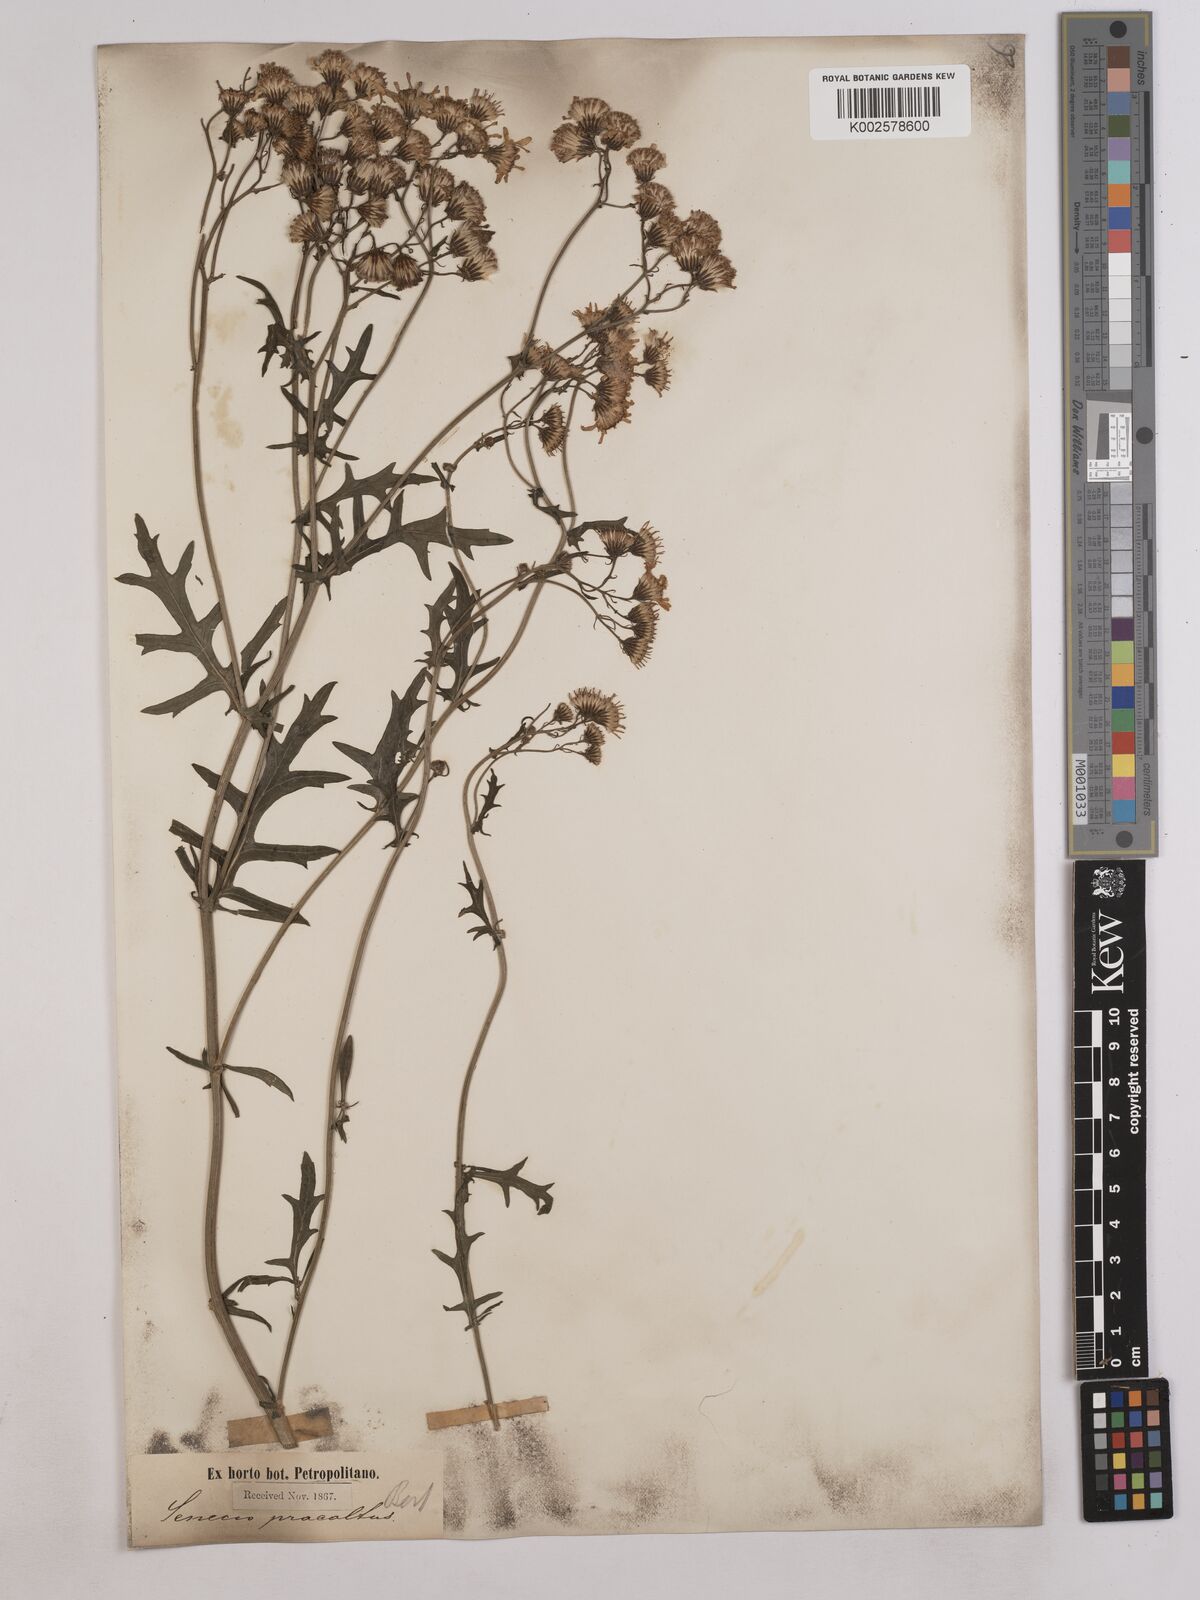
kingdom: Plantae
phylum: Tracheophyta
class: Magnoliopsida
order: Asterales
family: Asteraceae
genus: Senecio
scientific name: Senecio
